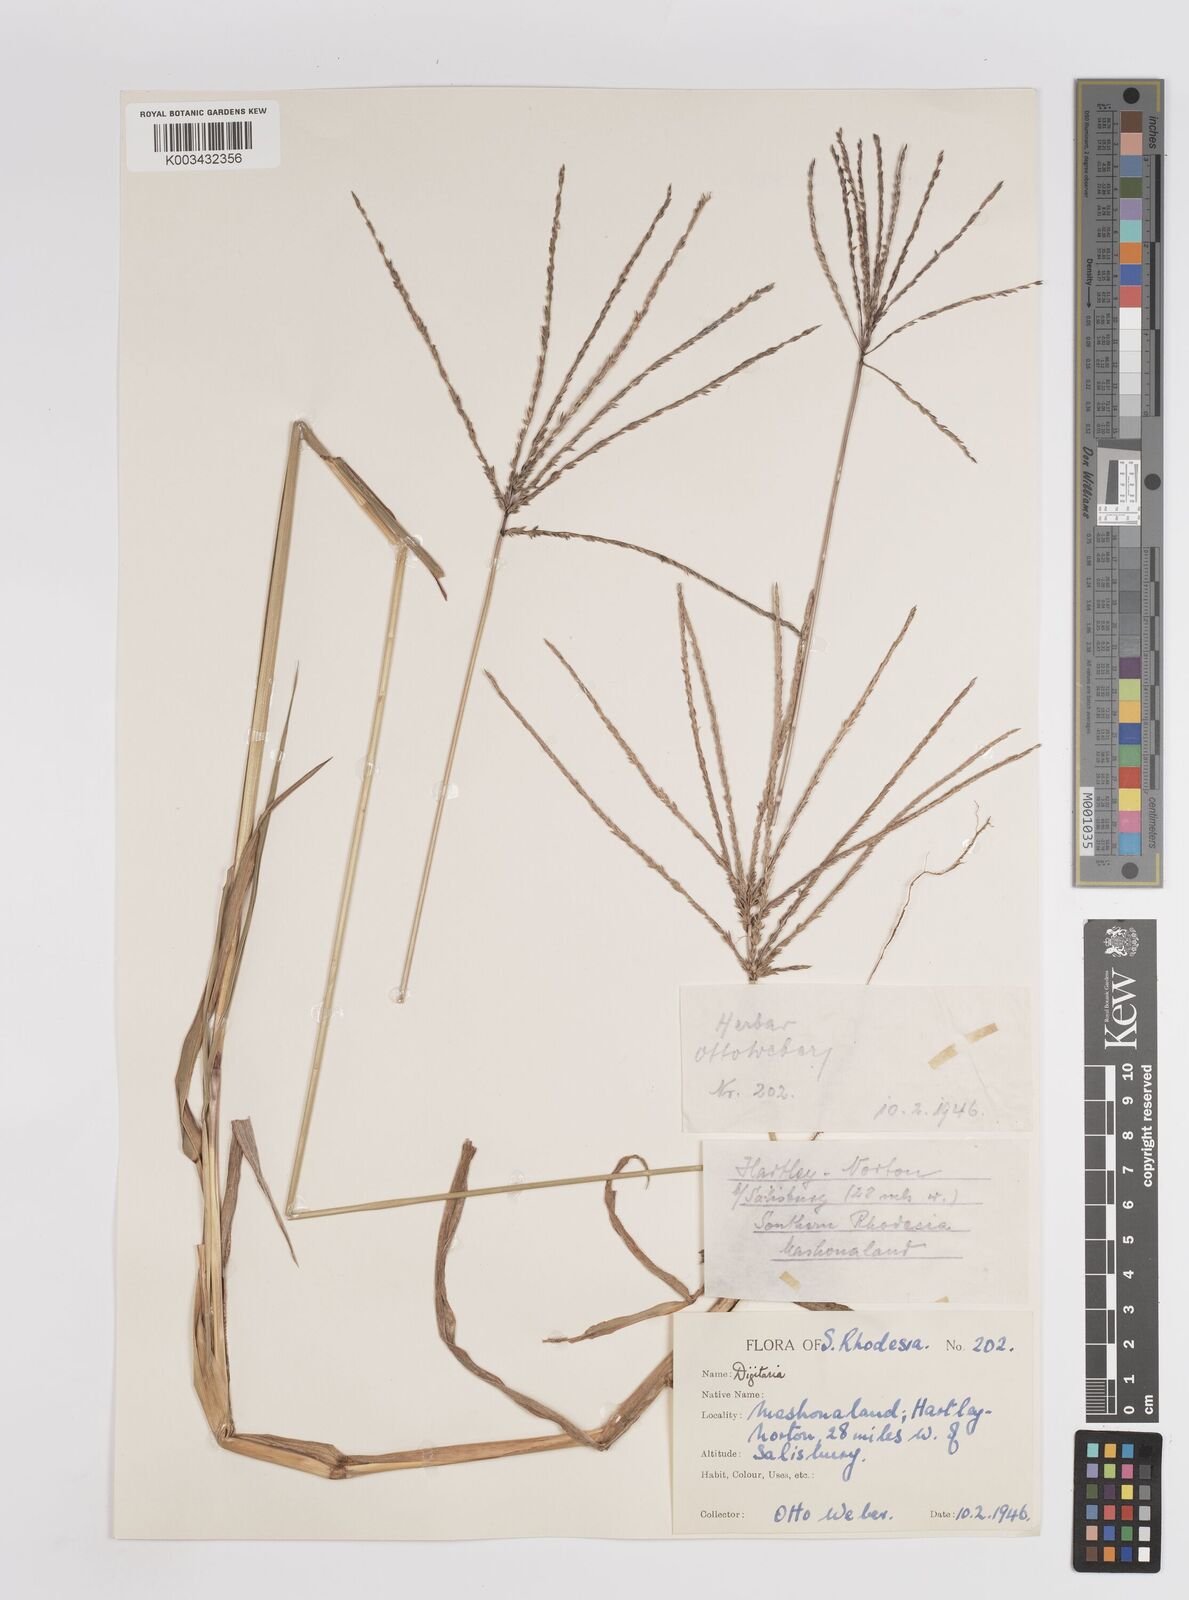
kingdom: Plantae
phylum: Tracheophyta
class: Liliopsida
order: Poales
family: Poaceae
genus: Digitaria
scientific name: Digitaria eriantha
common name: Digitgrass
